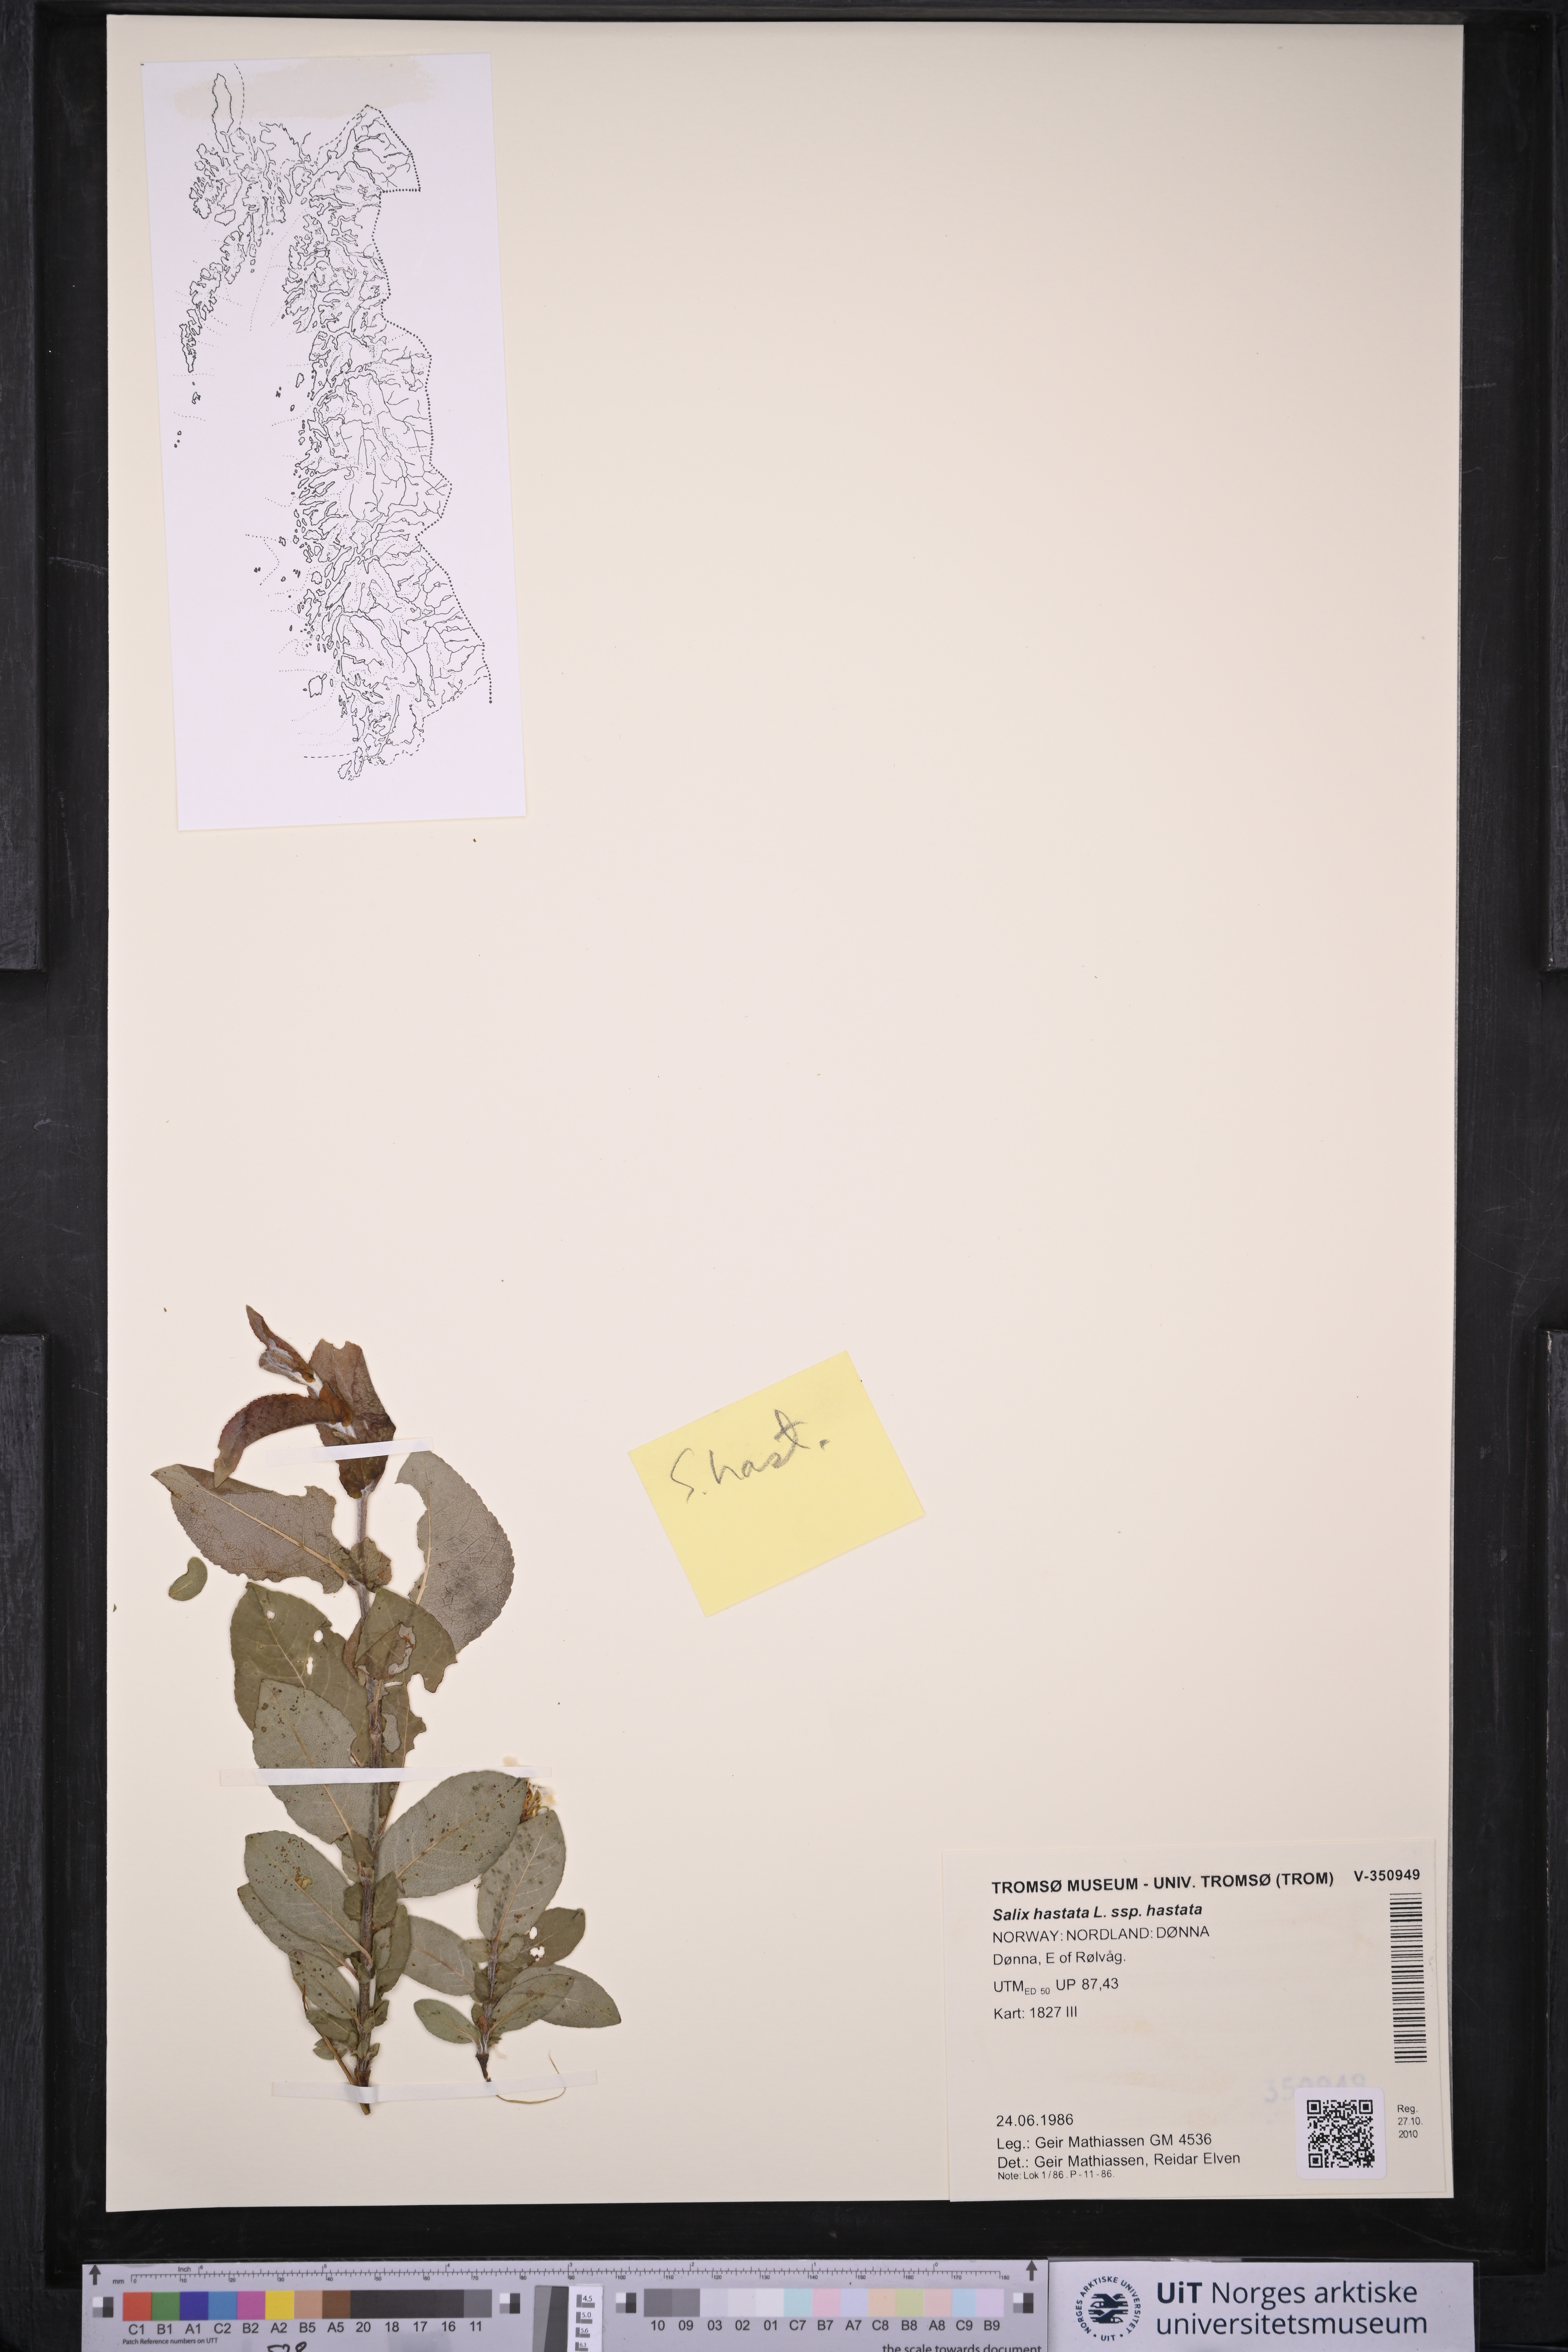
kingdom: Plantae
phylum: Tracheophyta
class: Magnoliopsida
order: Malpighiales
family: Salicaceae
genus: Salix
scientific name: Salix hastata
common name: Halberd willow
